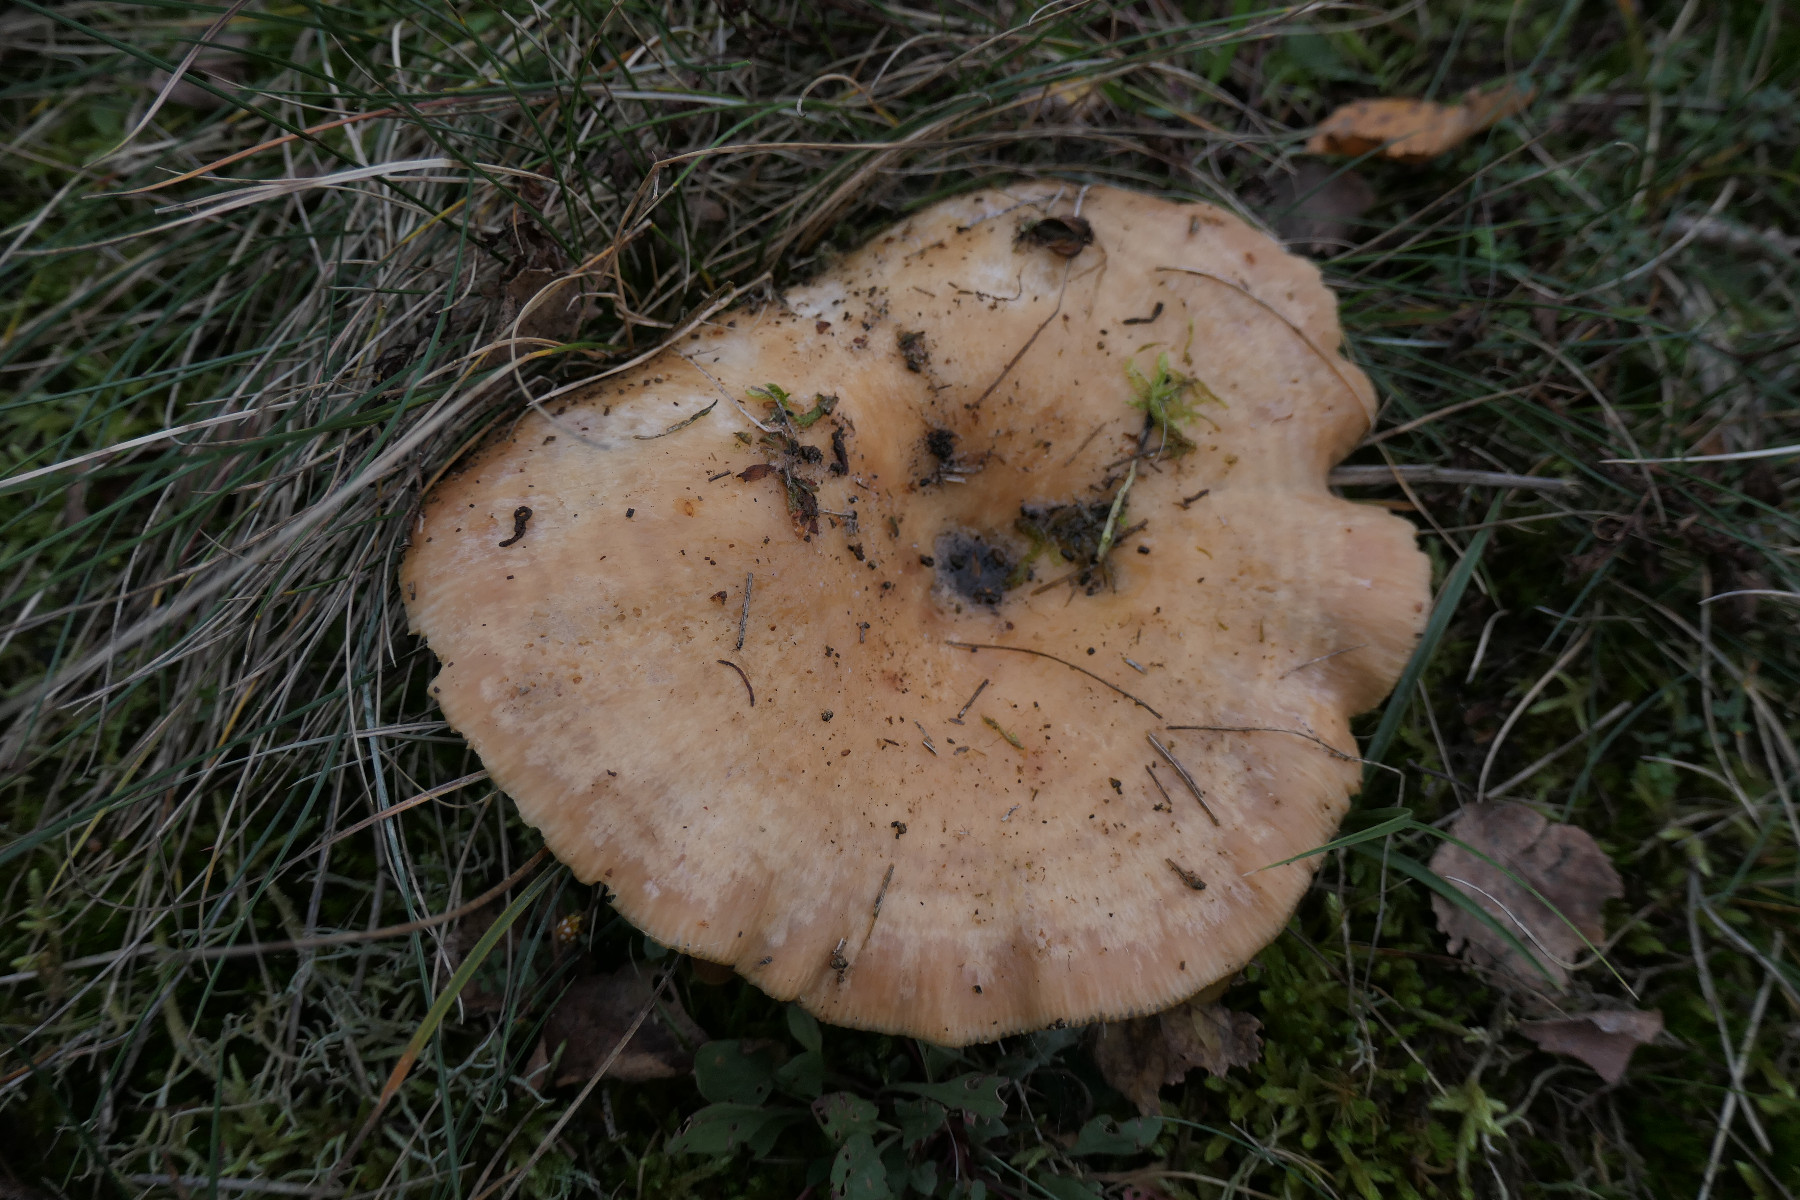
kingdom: Fungi
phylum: Basidiomycota
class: Agaricomycetes
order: Russulales
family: Russulaceae
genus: Lactarius
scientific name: Lactarius deliciosus
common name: velsmagende mælkehat
